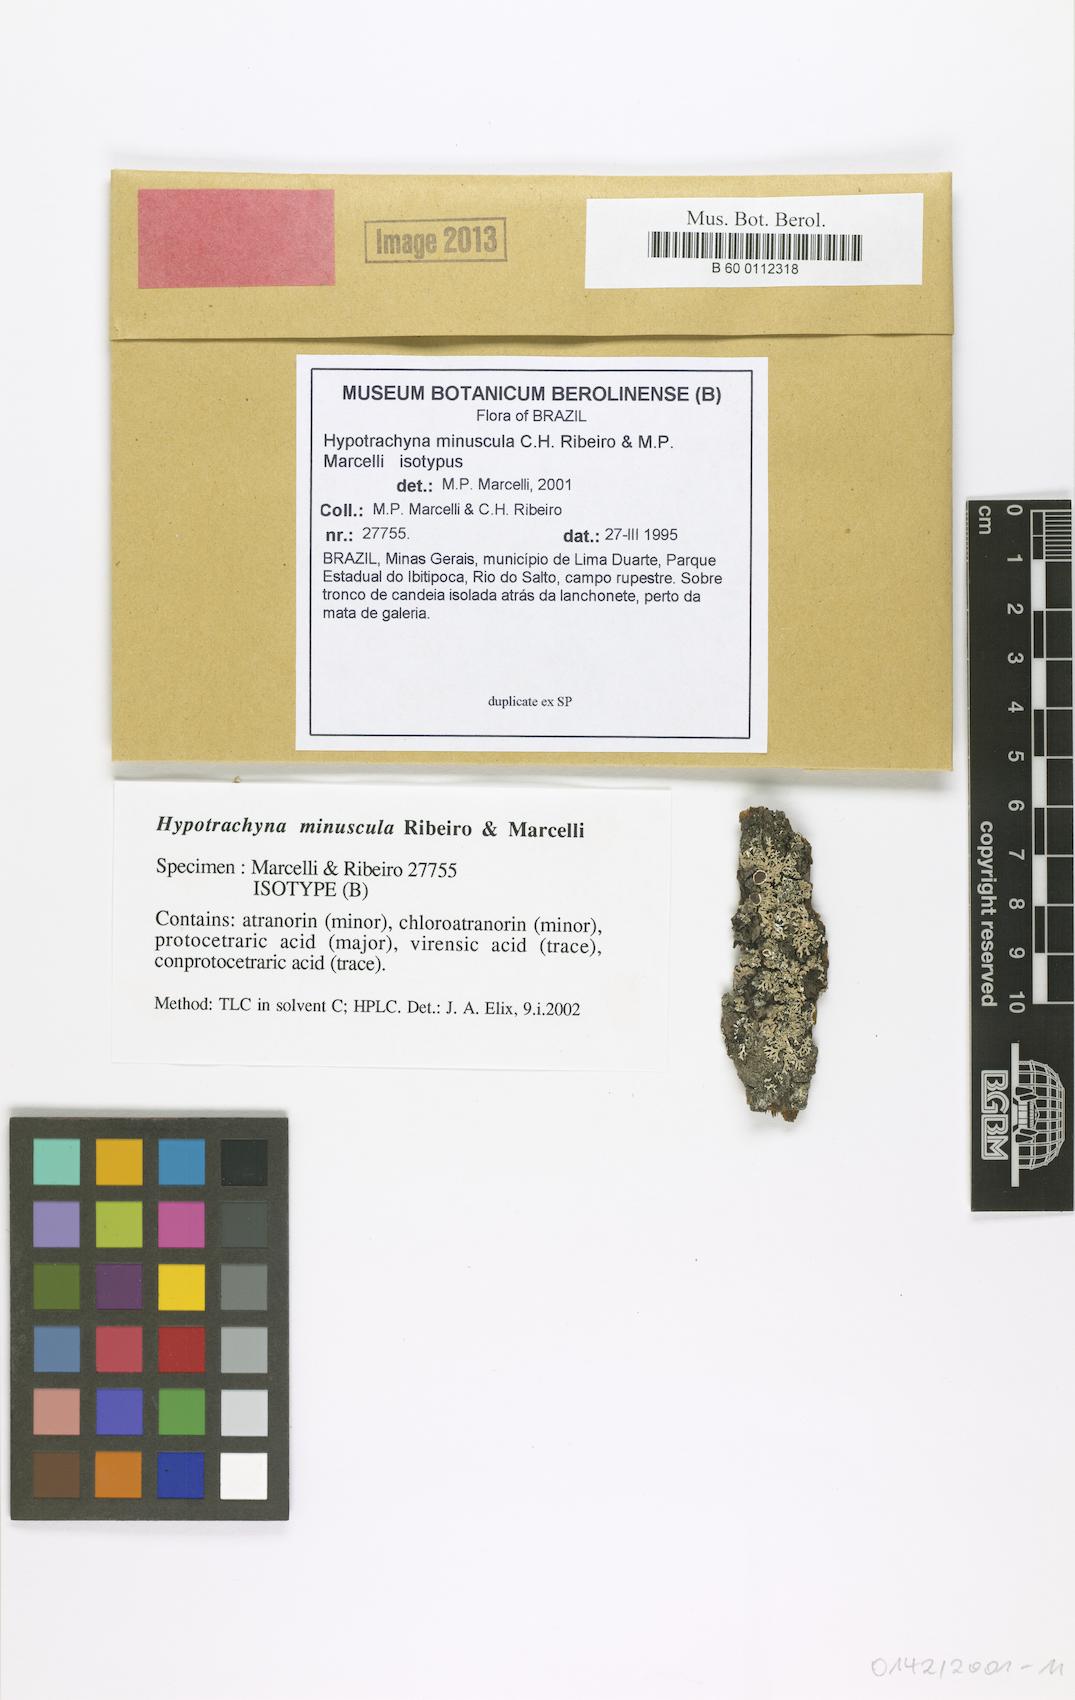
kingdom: Fungi
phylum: Ascomycota
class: Lecanoromycetes
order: Lecanorales
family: Parmeliaceae
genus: Hypotrachyna
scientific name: Hypotrachyna minuscula
